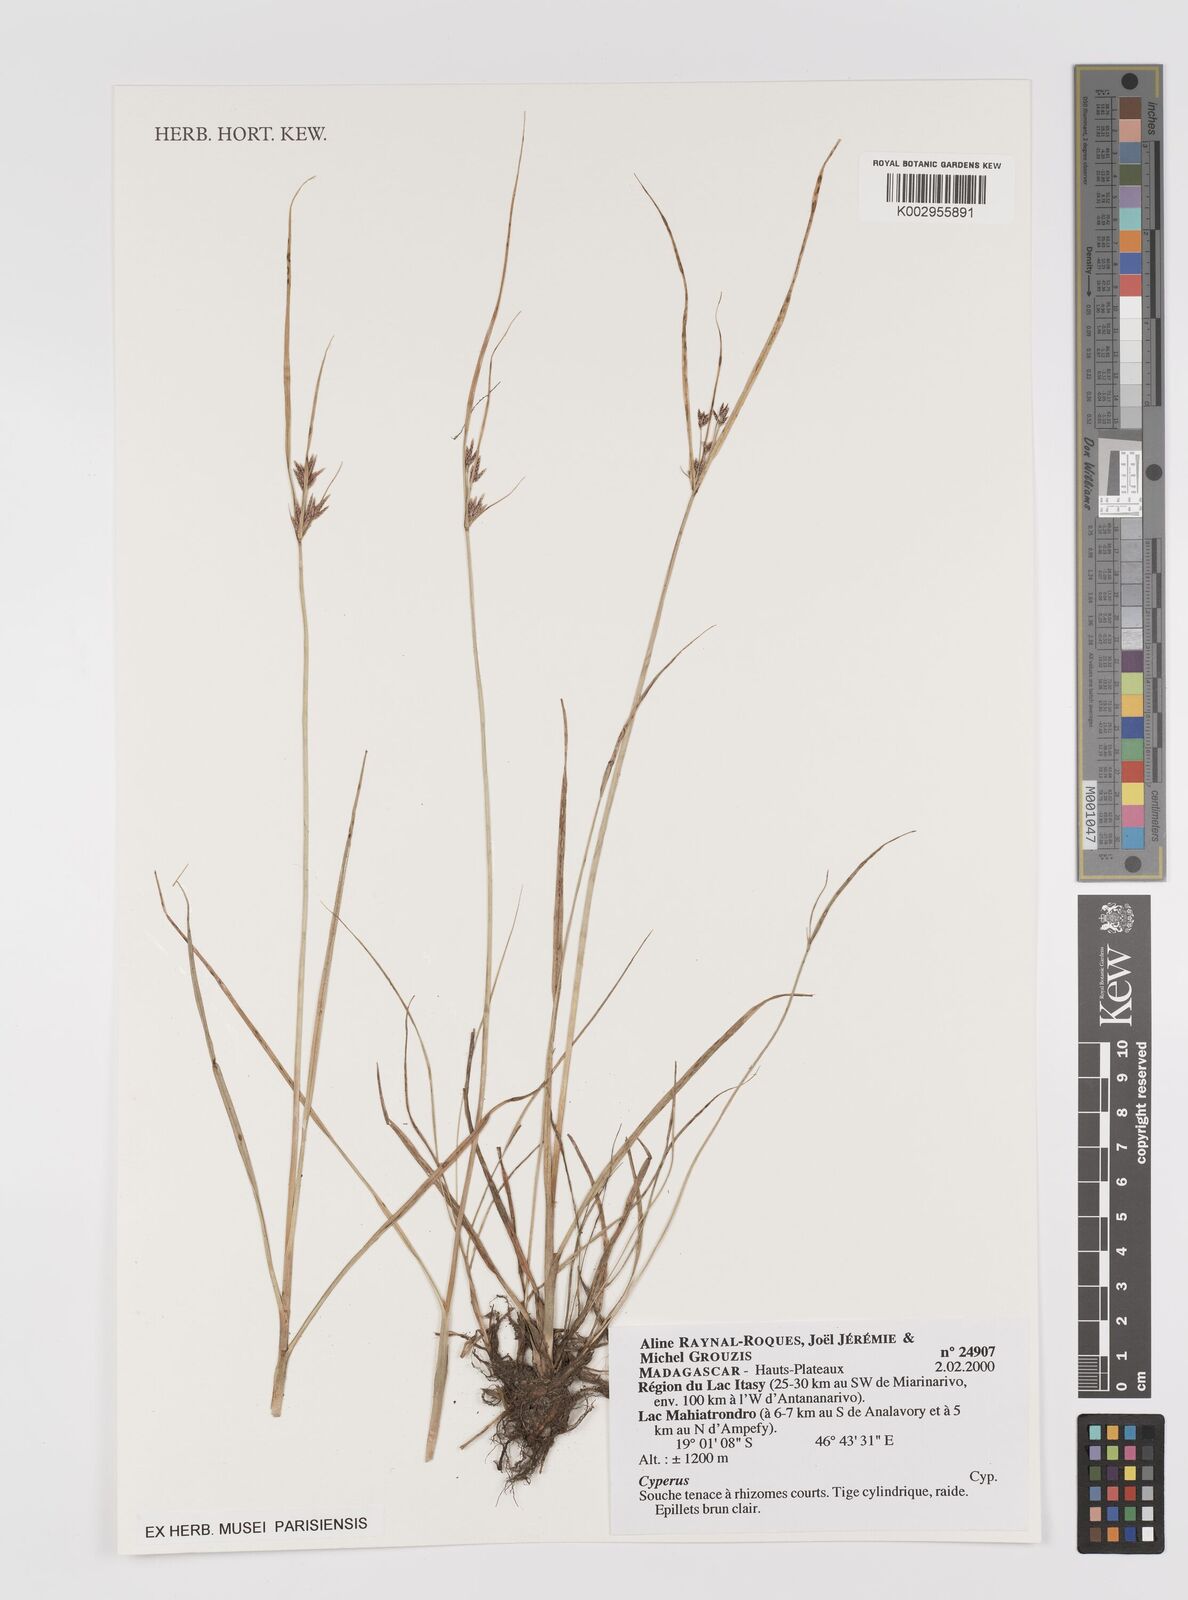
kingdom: Plantae
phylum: Tracheophyta
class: Liliopsida
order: Poales
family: Cyperaceae
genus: Cyperus
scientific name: Cyperus
